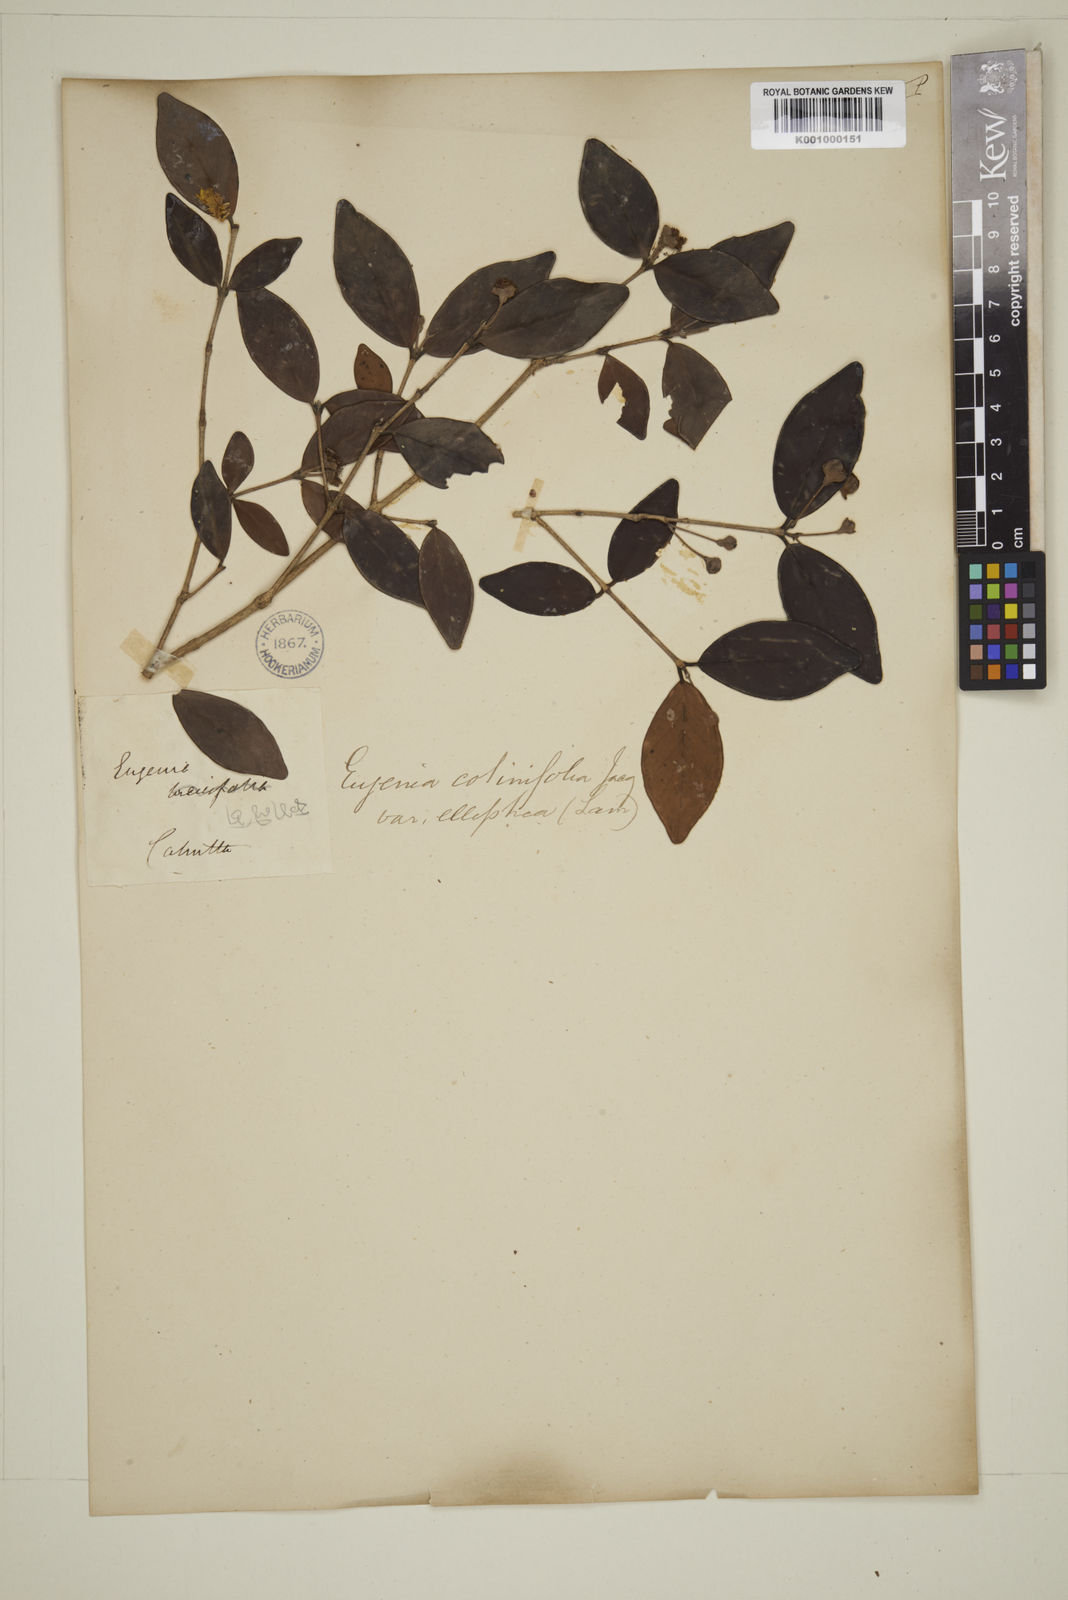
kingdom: Plantae
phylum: Tracheophyta
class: Magnoliopsida
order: Myrtales
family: Myrtaceae
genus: Eugenia
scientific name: Eugenia codyensis
